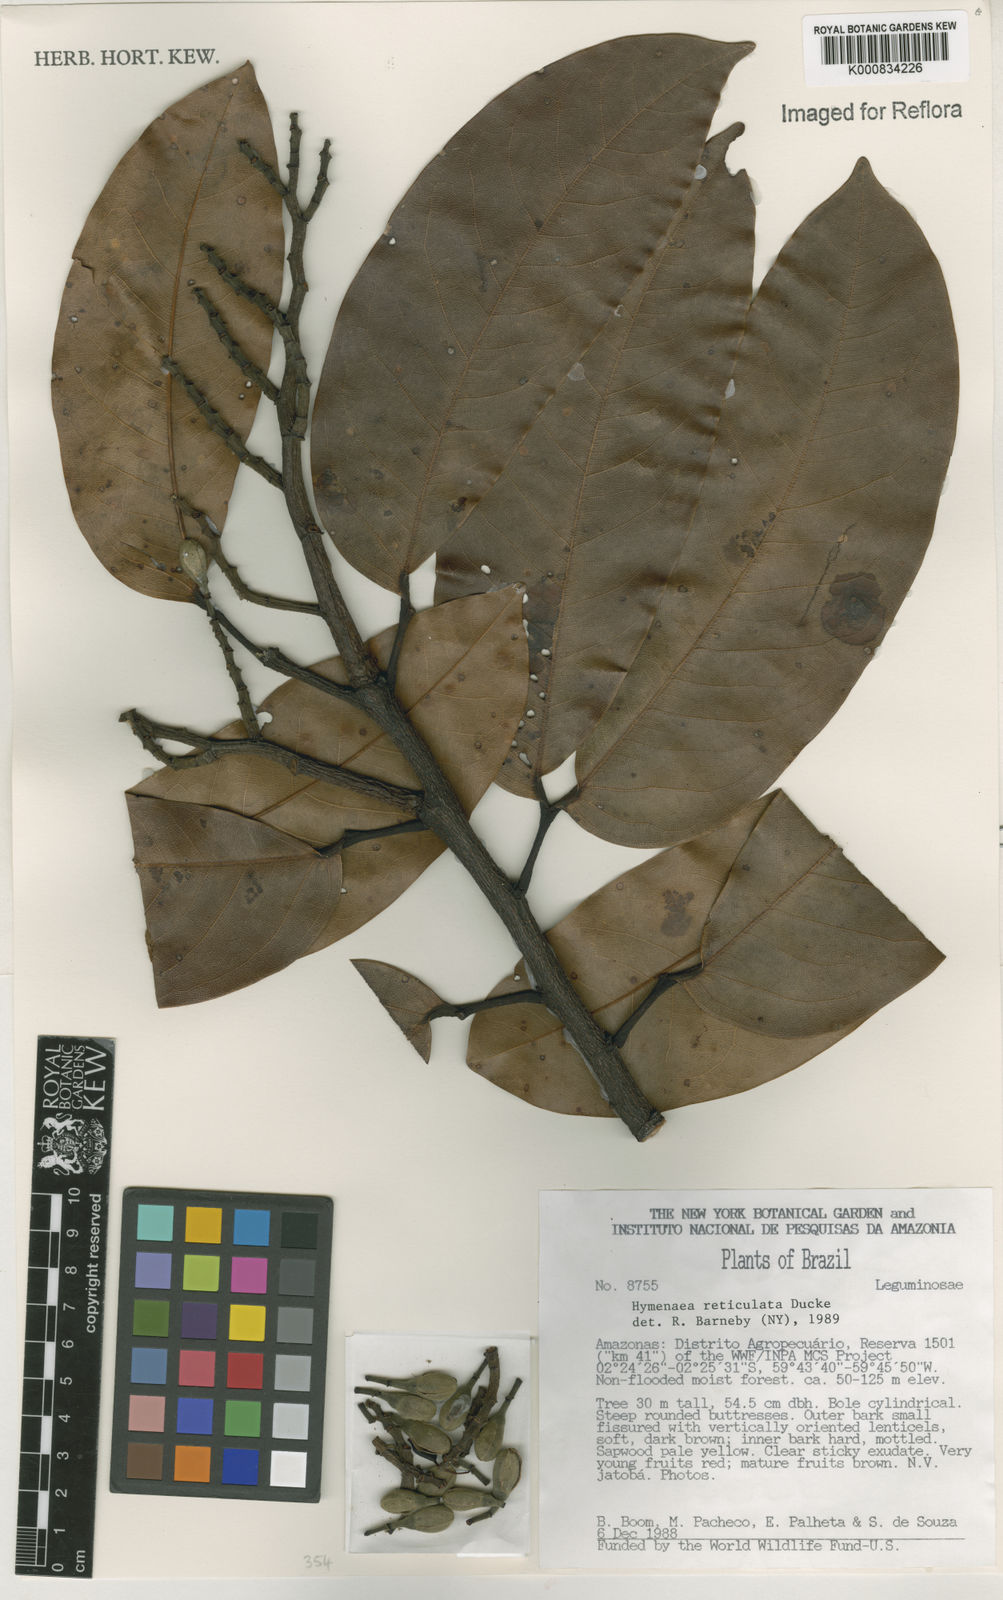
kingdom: Plantae
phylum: Tracheophyta
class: Magnoliopsida
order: Fabales
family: Fabaceae
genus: Hymenaea
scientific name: Hymenaea reticulata
